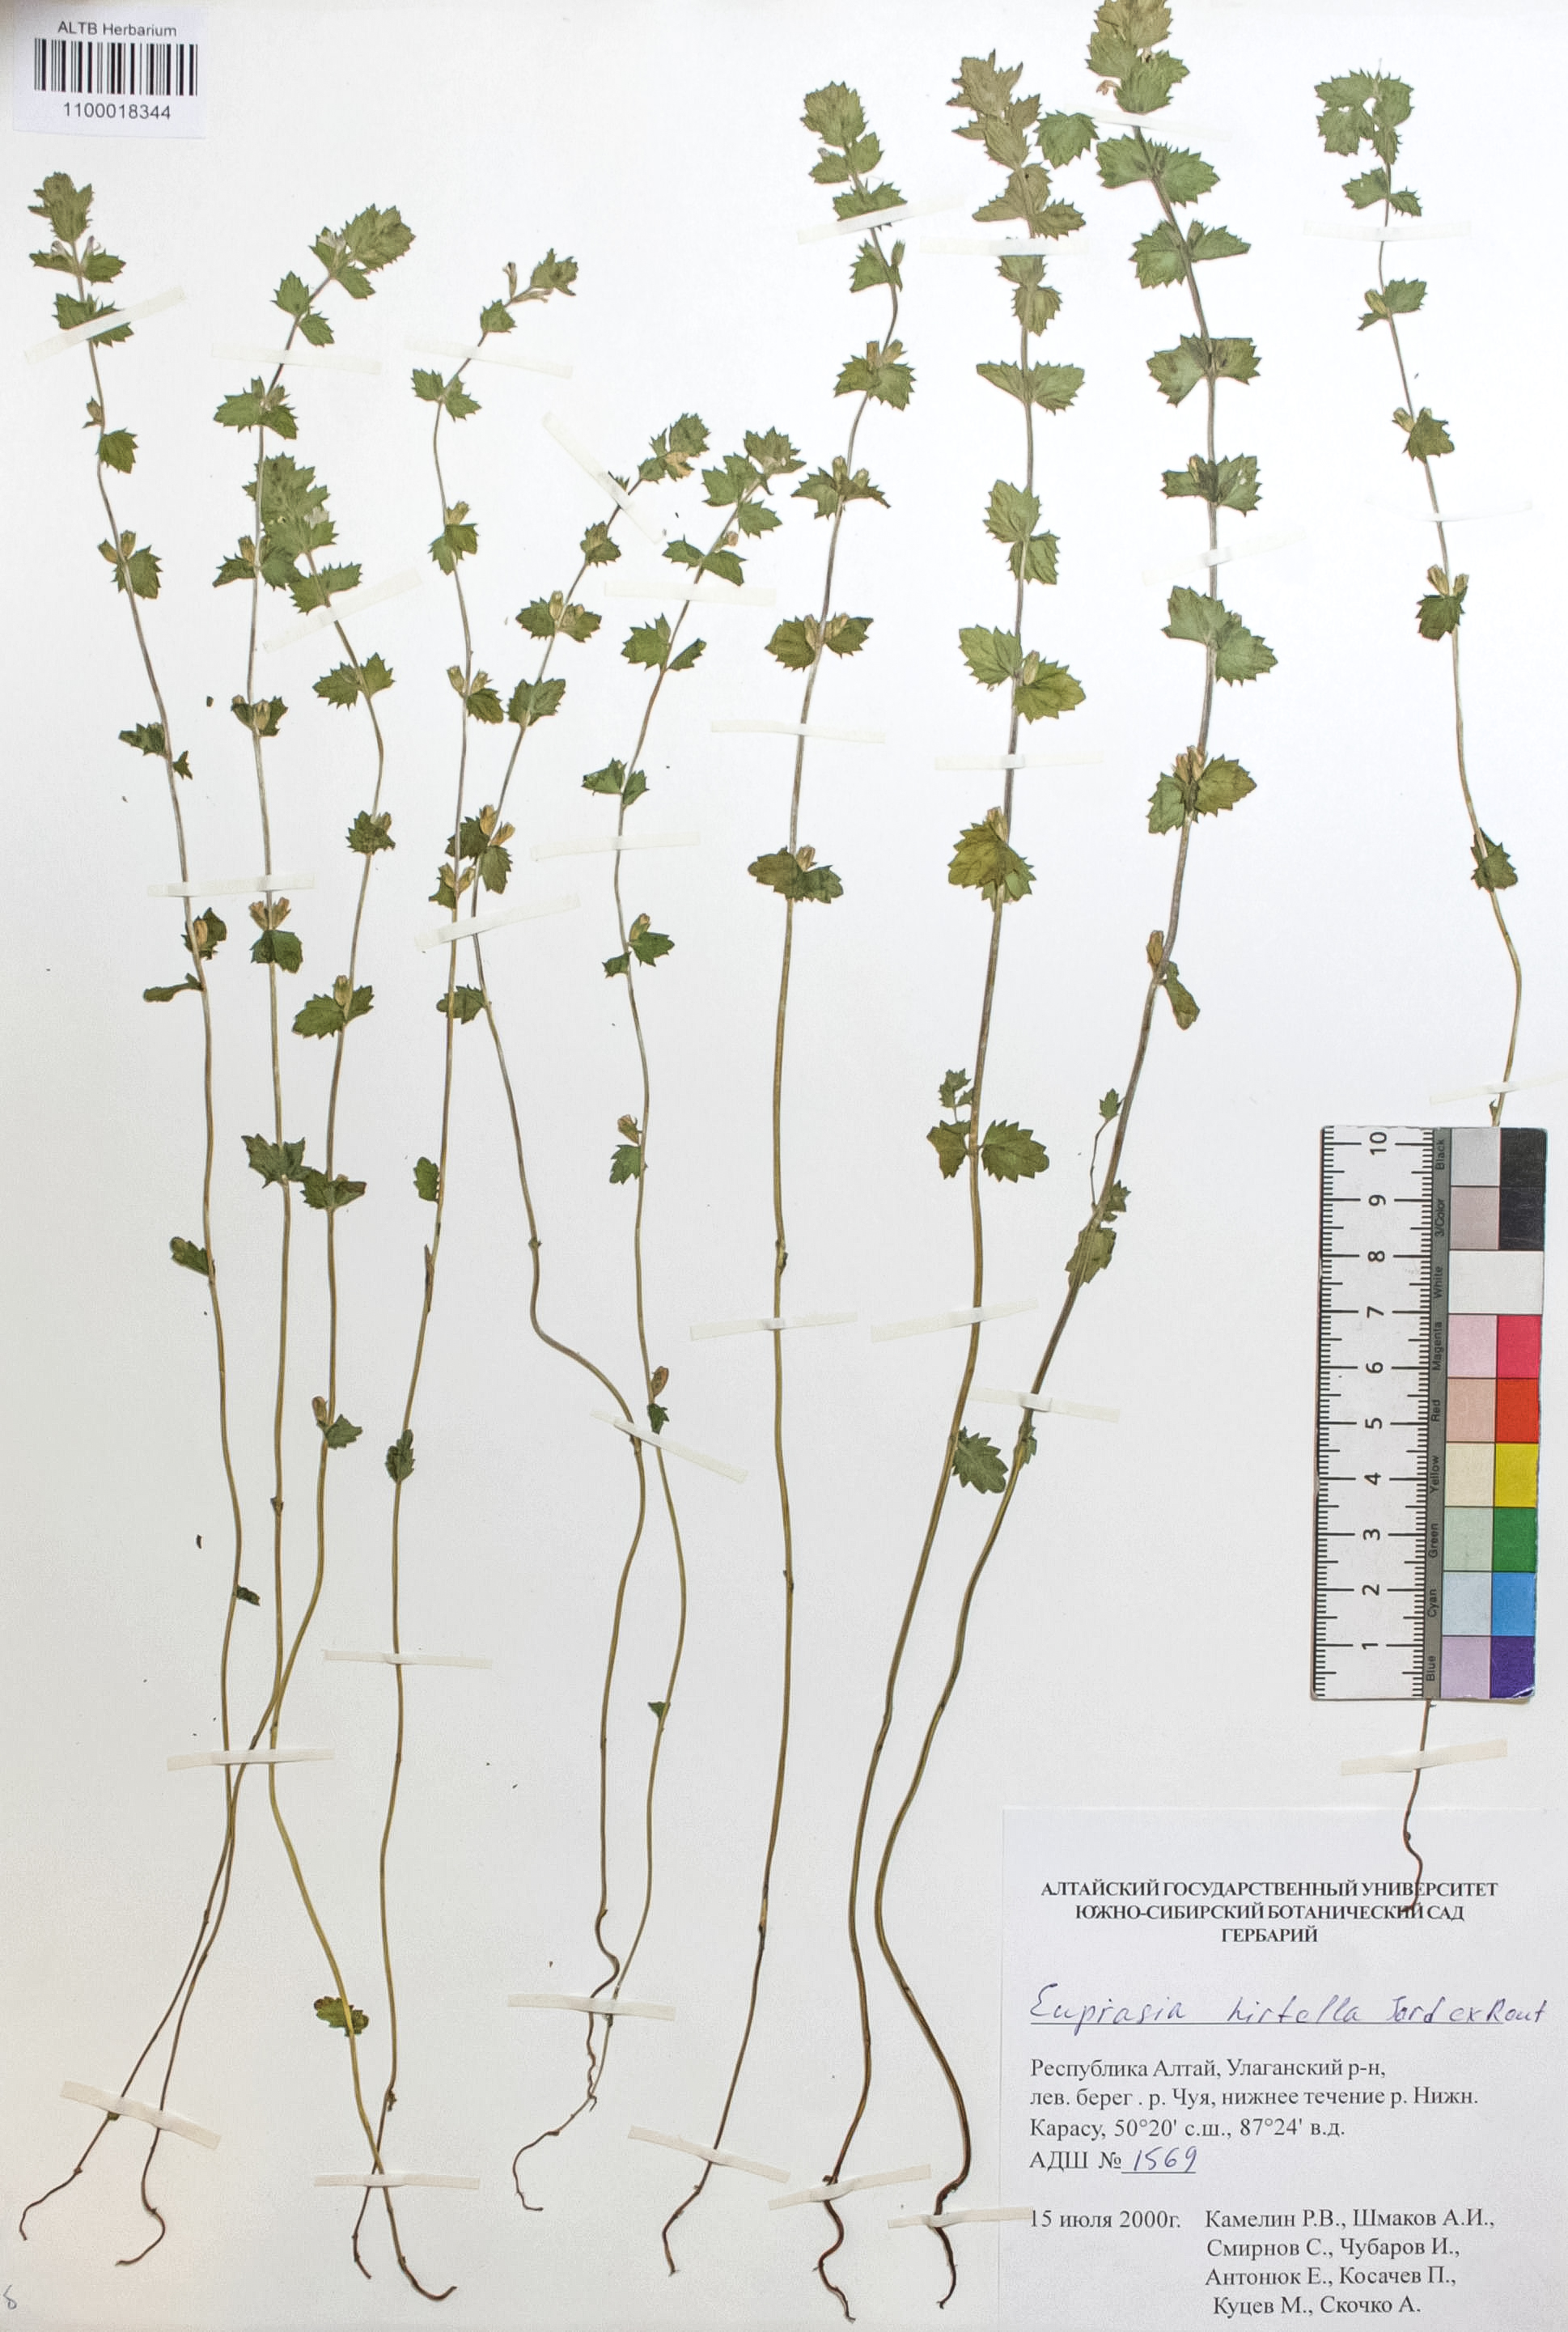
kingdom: Plantae
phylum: Tracheophyta
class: Magnoliopsida
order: Lamiales
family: Orobanchaceae
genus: Euphrasia
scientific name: Euphrasia hirtella
